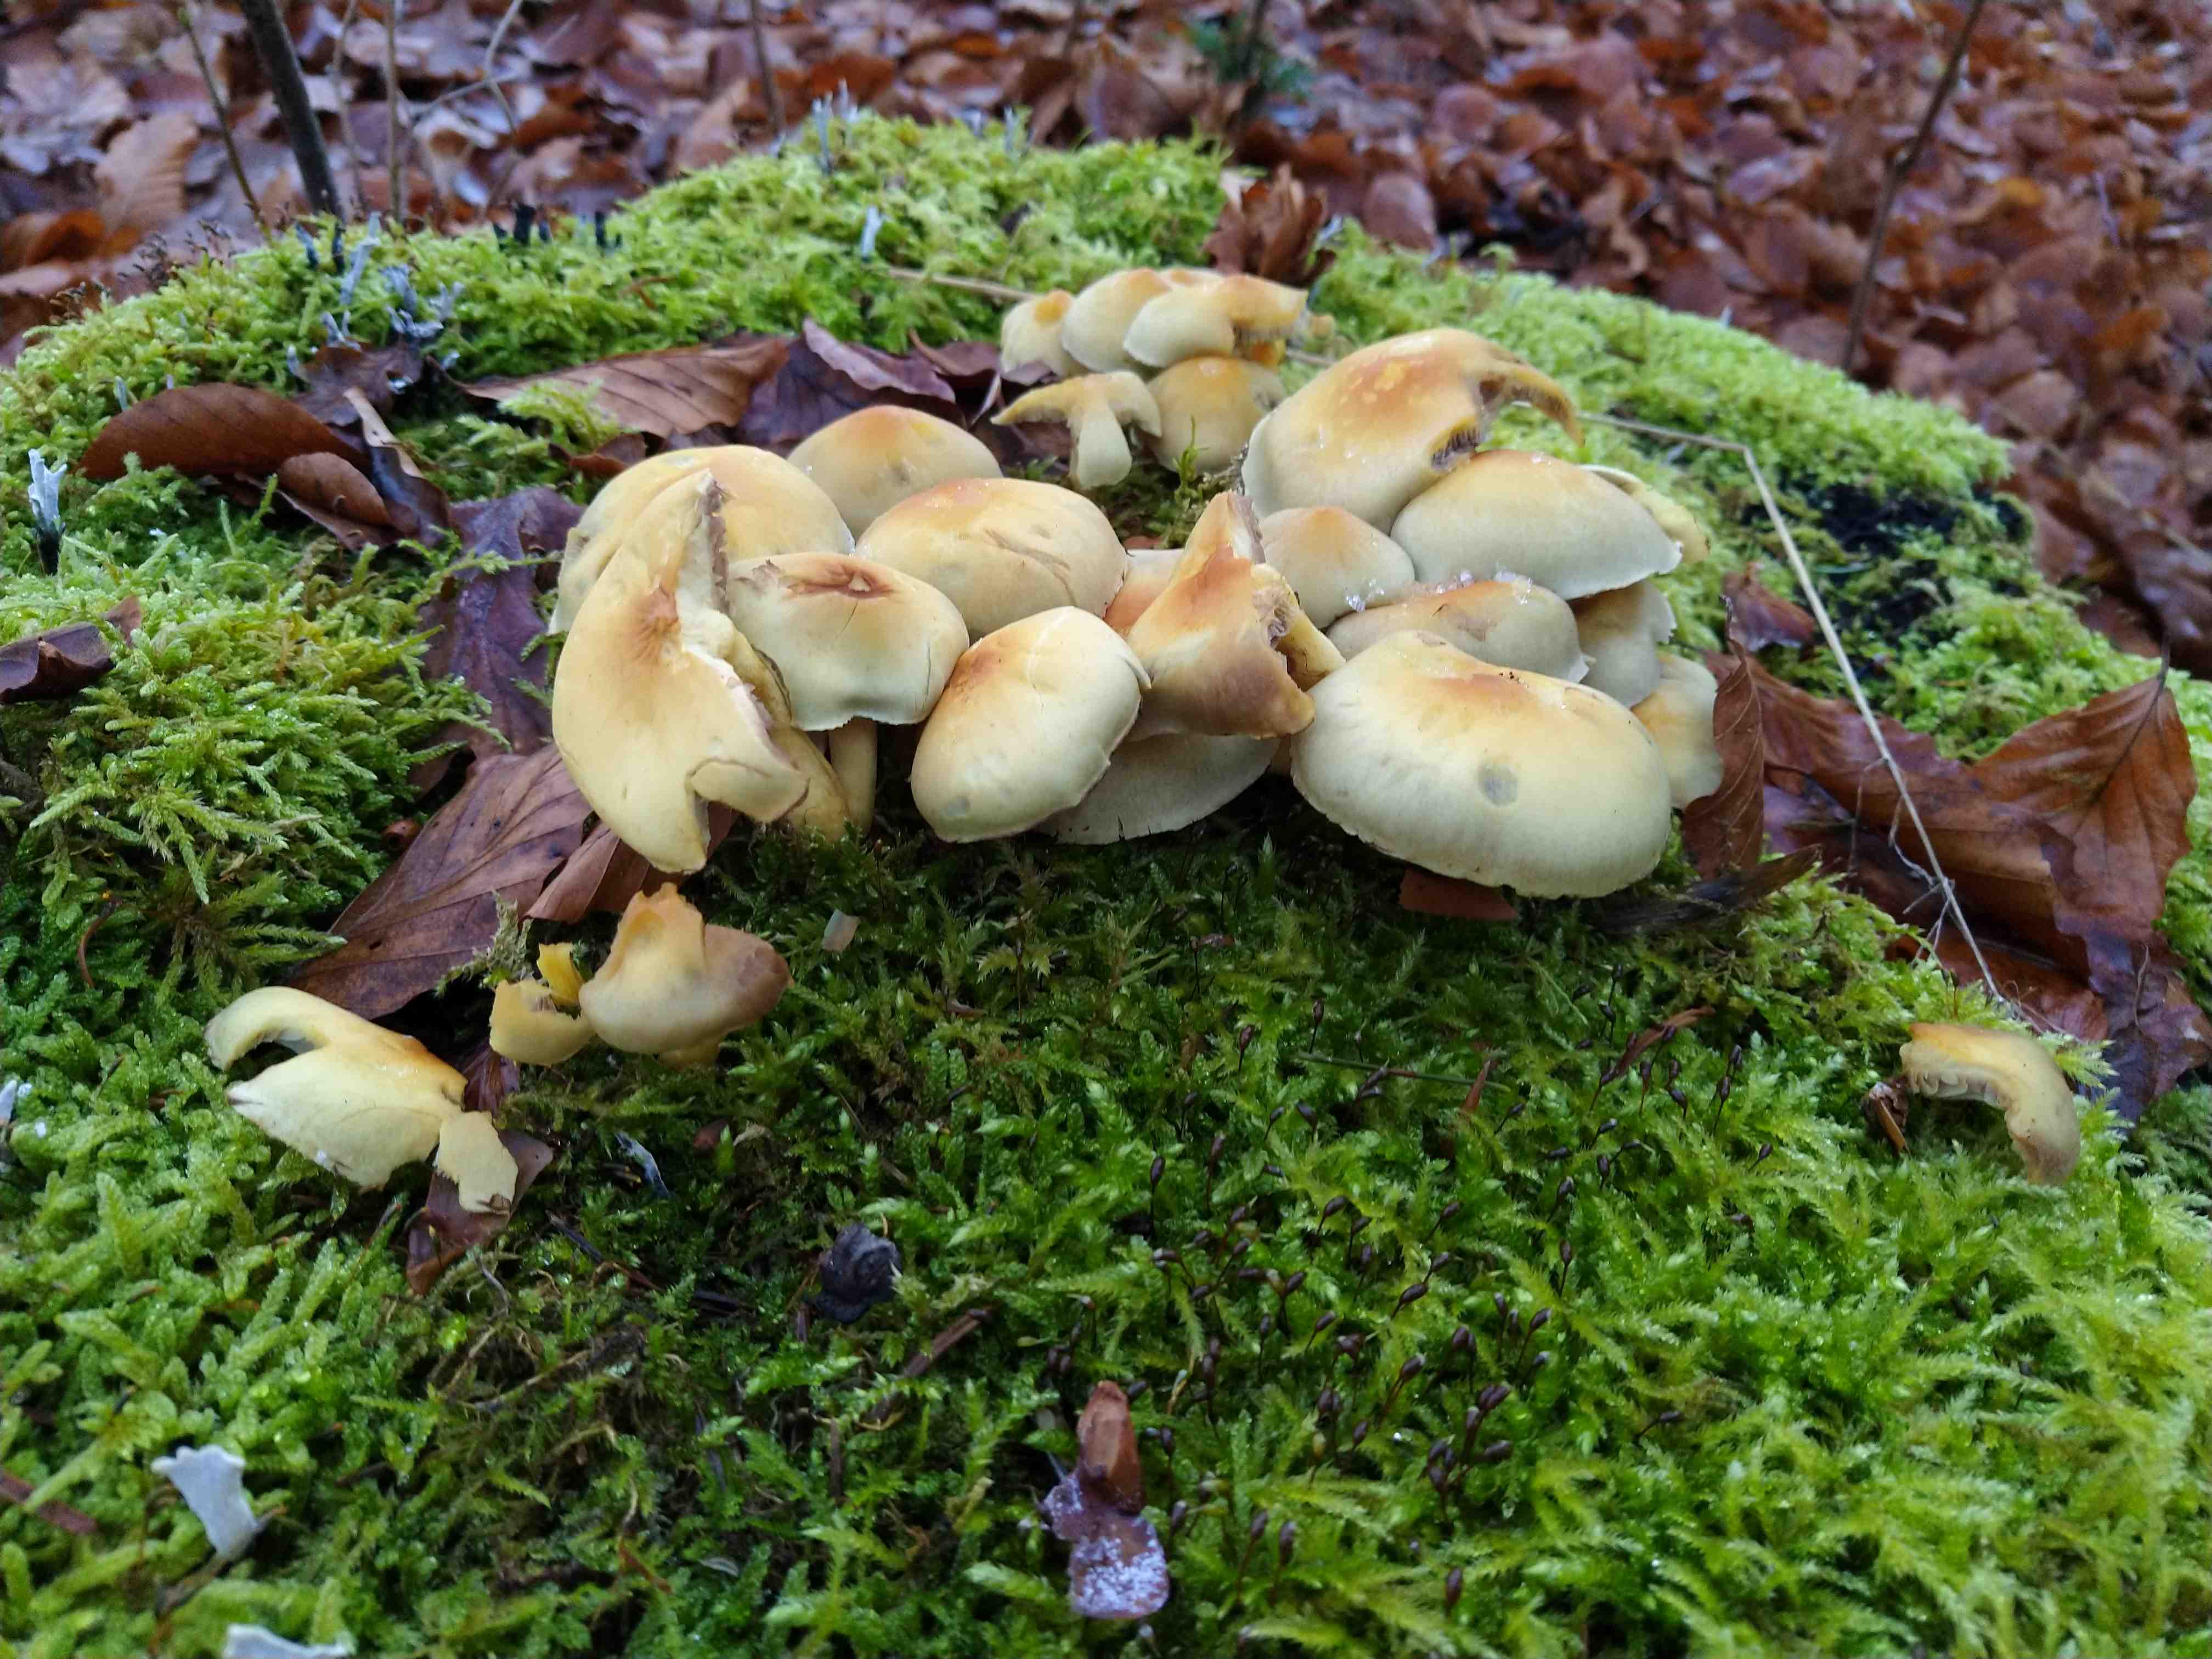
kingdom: Fungi
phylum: Basidiomycota
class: Agaricomycetes
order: Agaricales
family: Strophariaceae
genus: Hypholoma
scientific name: Hypholoma fasciculare
